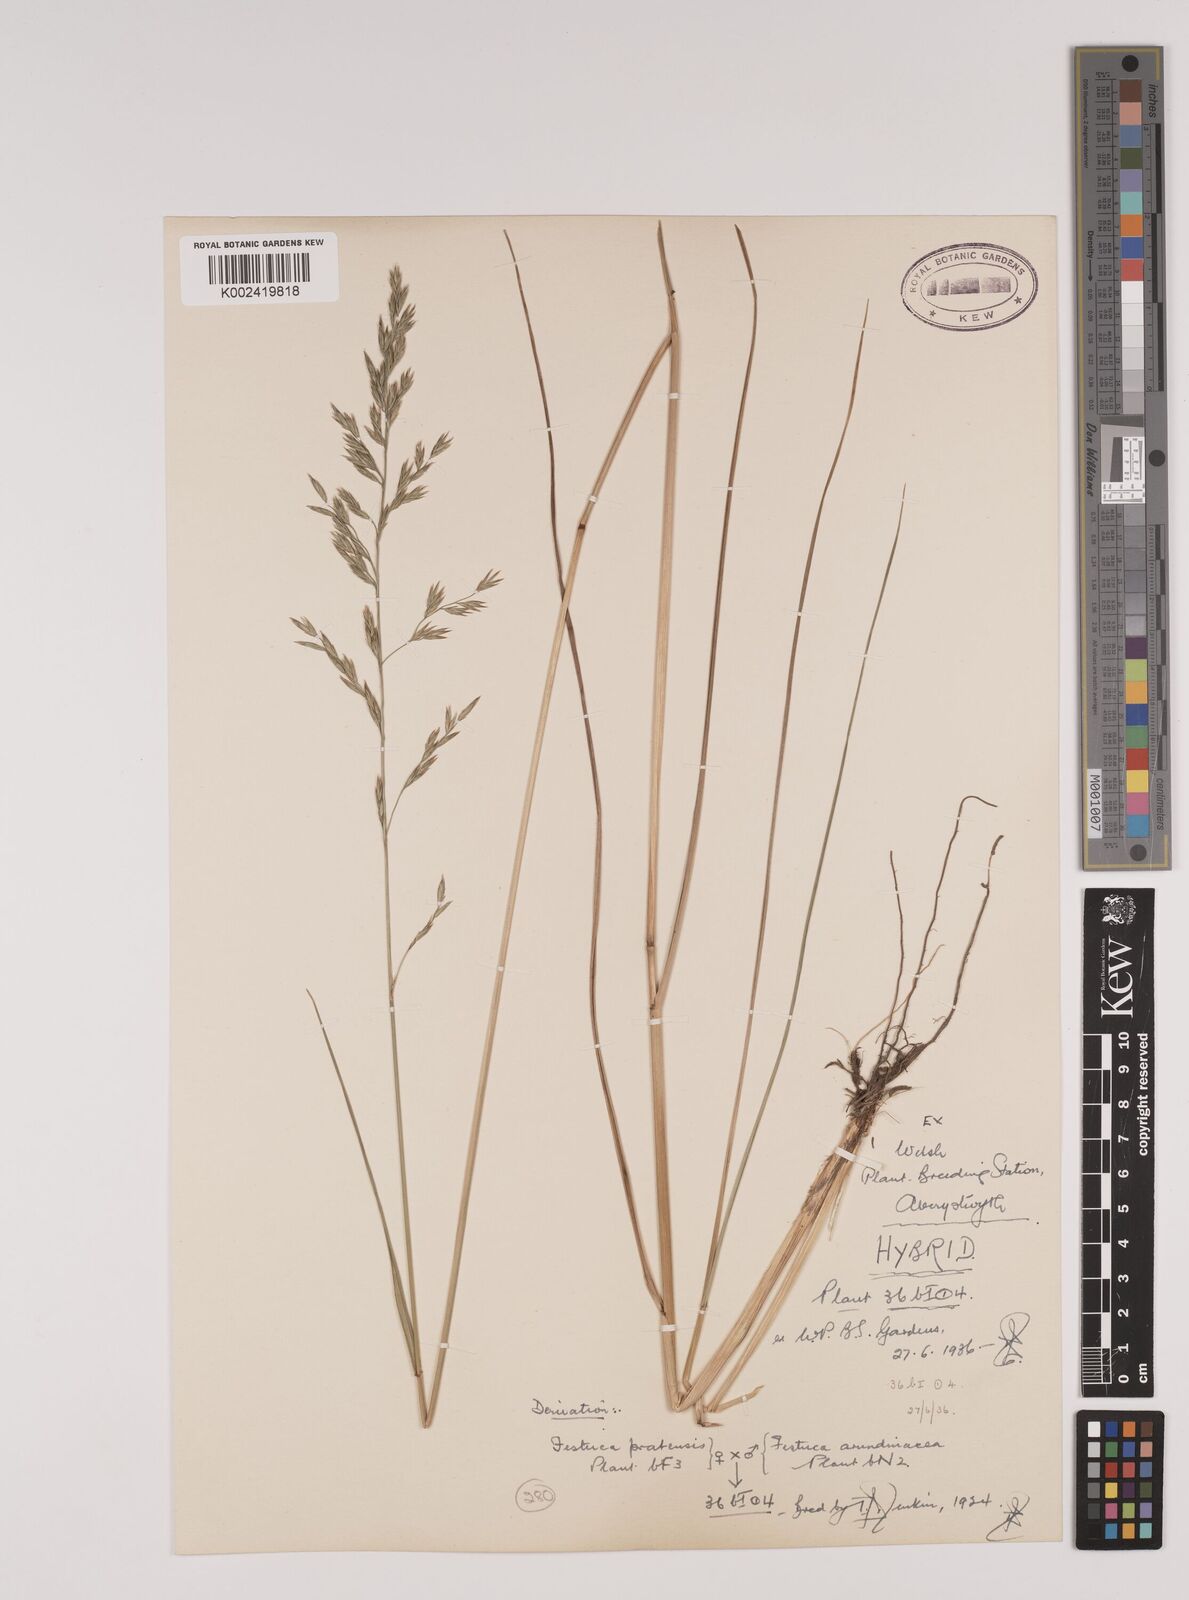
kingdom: Plantae
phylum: Tracheophyta
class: Liliopsida
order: Poales
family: Poaceae
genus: Festuca
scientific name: Festuca rubra
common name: Red fescue
